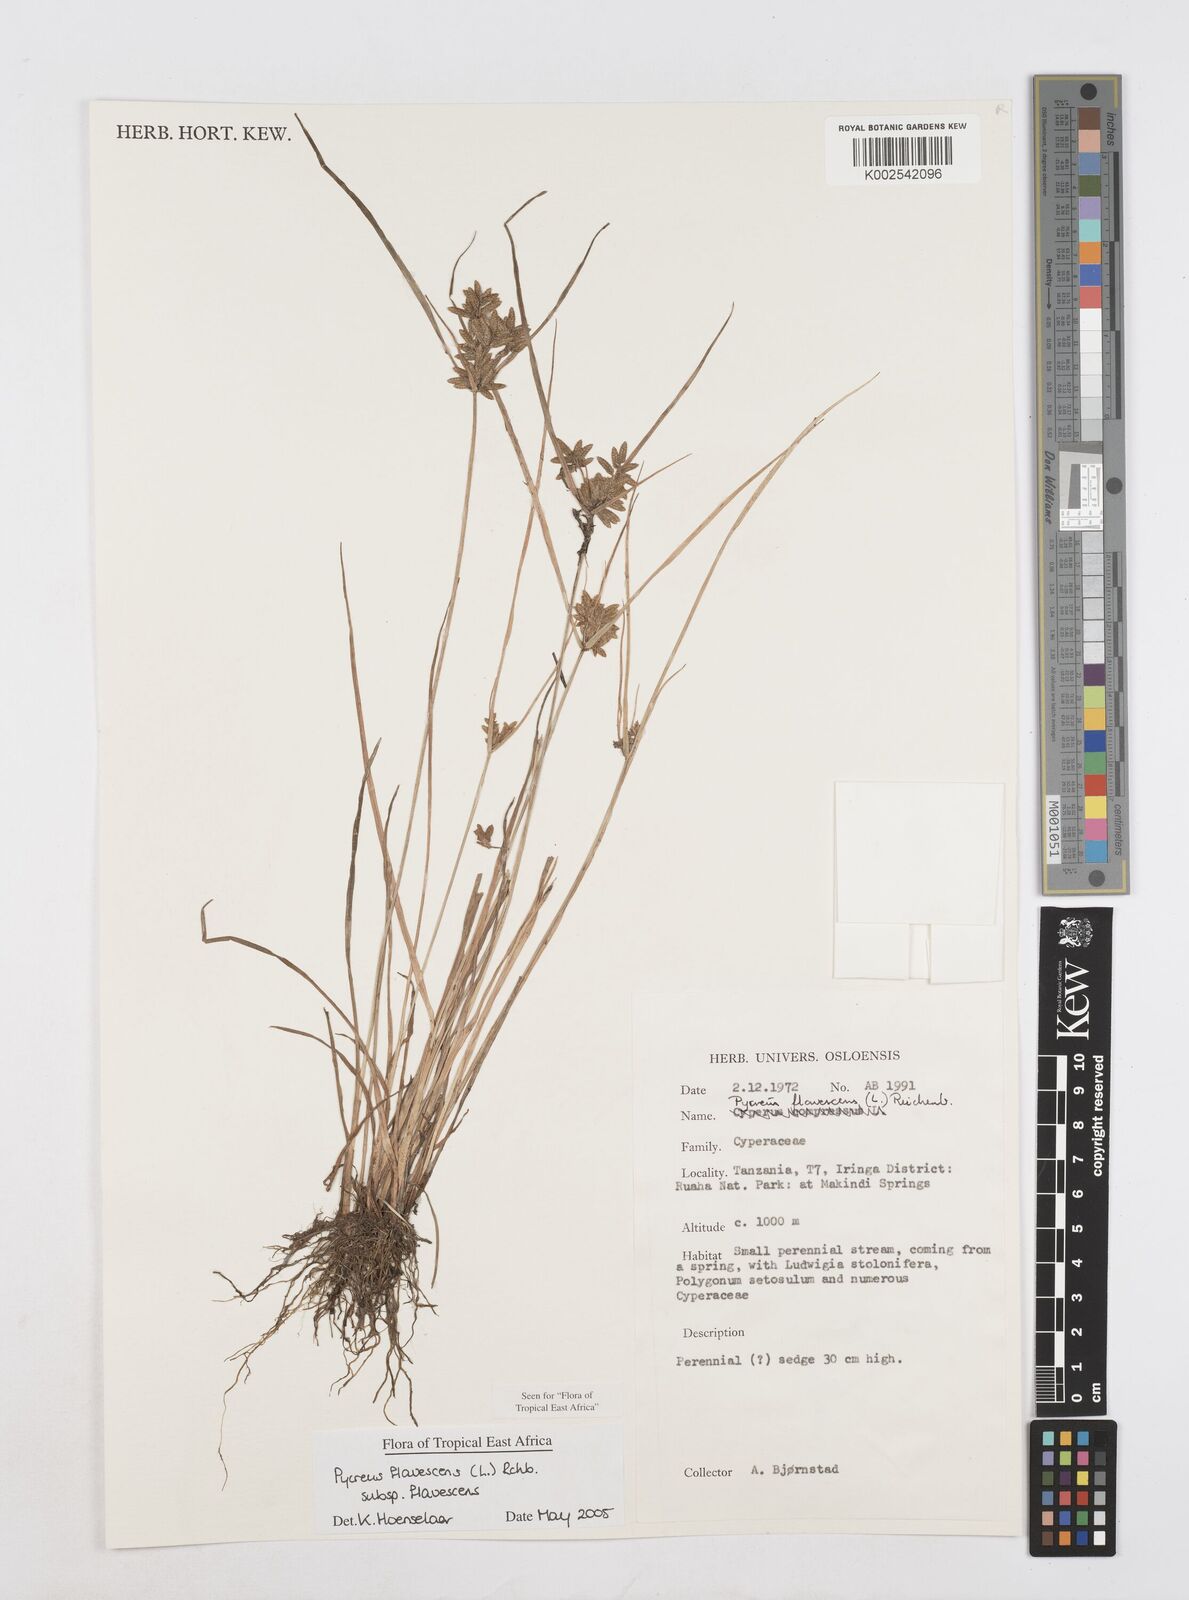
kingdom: Plantae
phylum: Tracheophyta
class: Liliopsida
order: Poales
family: Cyperaceae
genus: Cyperus
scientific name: Cyperus flavescens
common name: Yellow galingale
